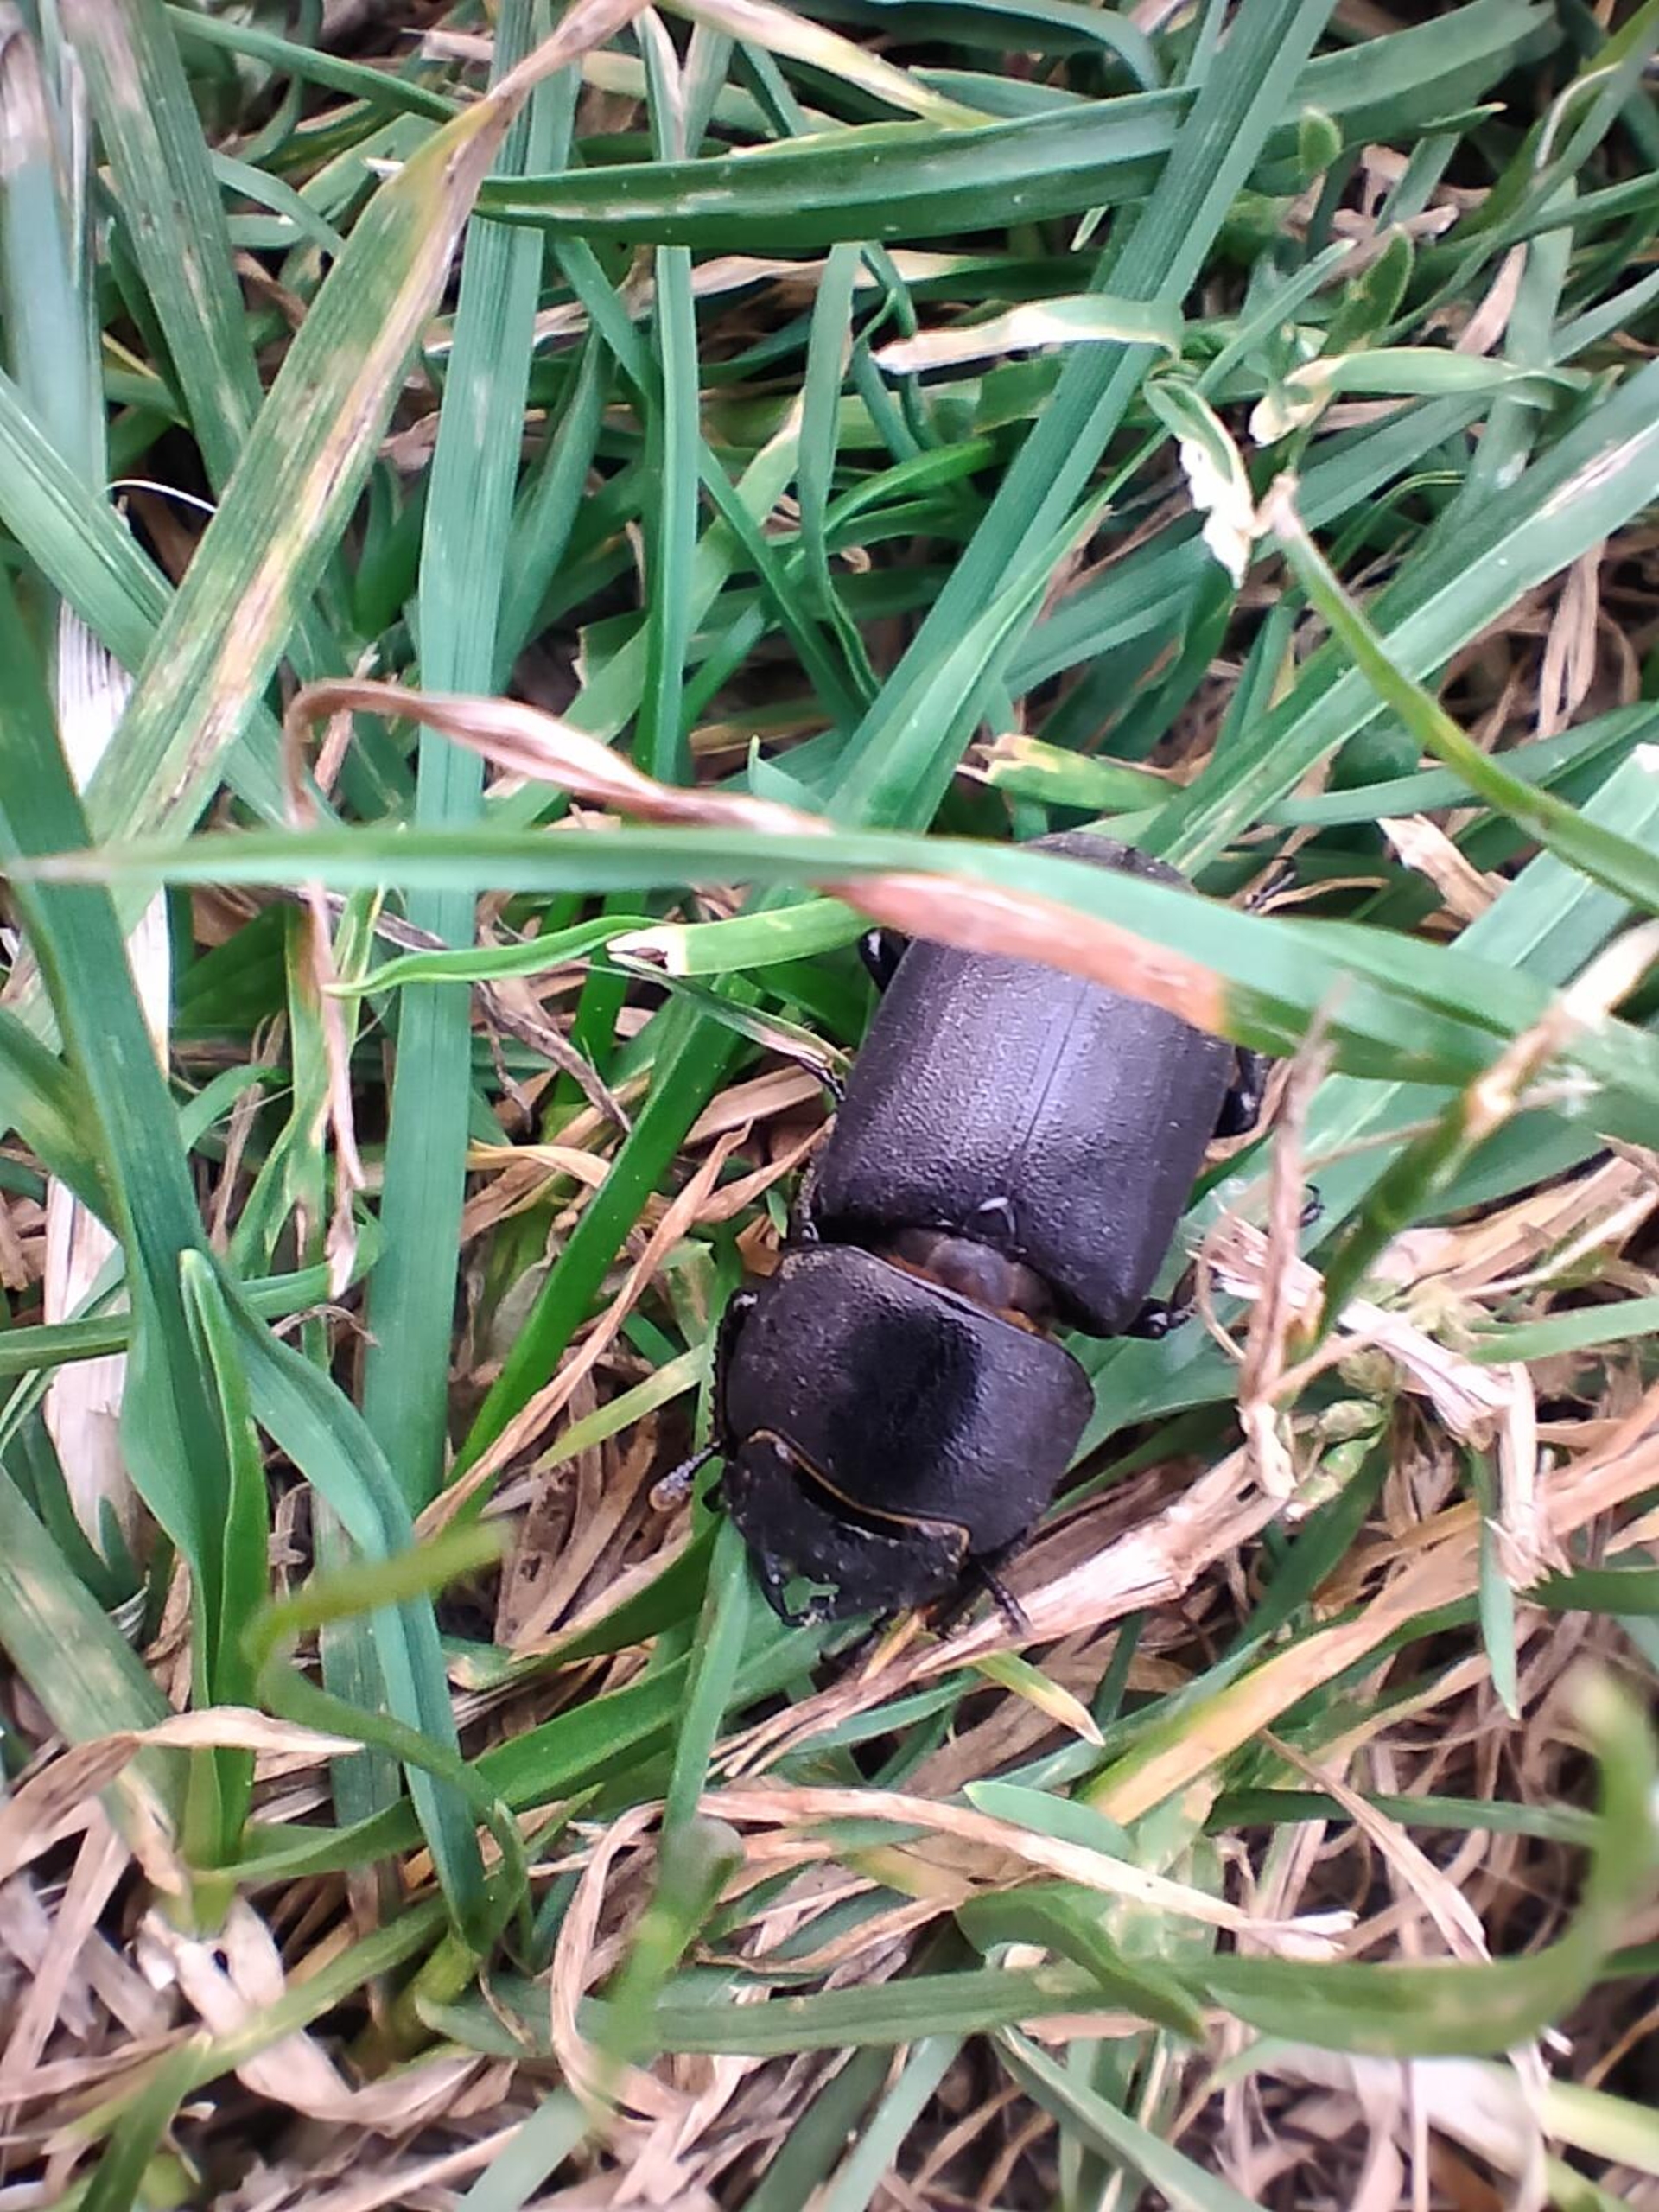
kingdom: Animalia
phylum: Arthropoda
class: Insecta
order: Coleoptera
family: Lucanidae
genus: Dorcus
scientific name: Dorcus parallelipipedus
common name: Bøghjort
